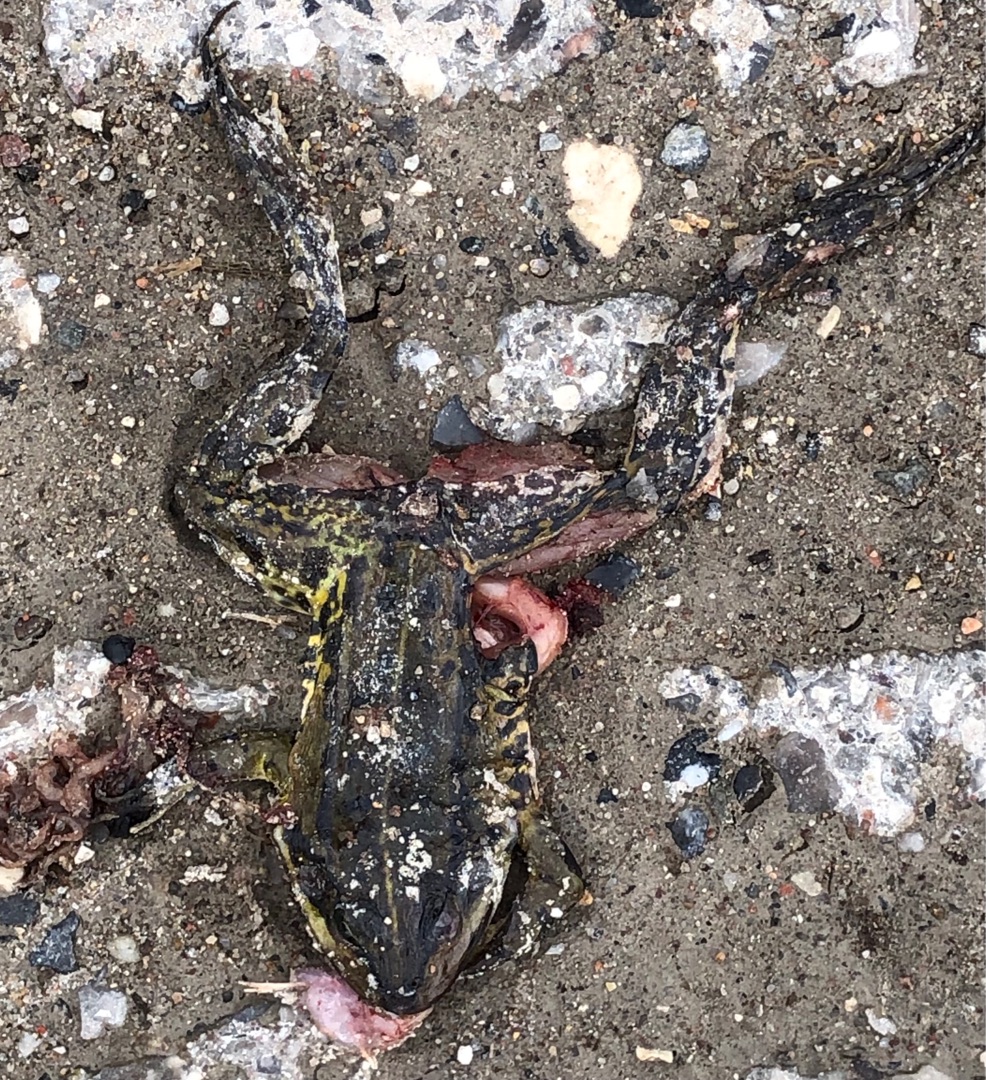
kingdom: Animalia
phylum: Chordata
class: Amphibia
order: Anura
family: Ranidae
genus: Pelophylax
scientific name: Pelophylax lessonae
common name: Grøn frø
